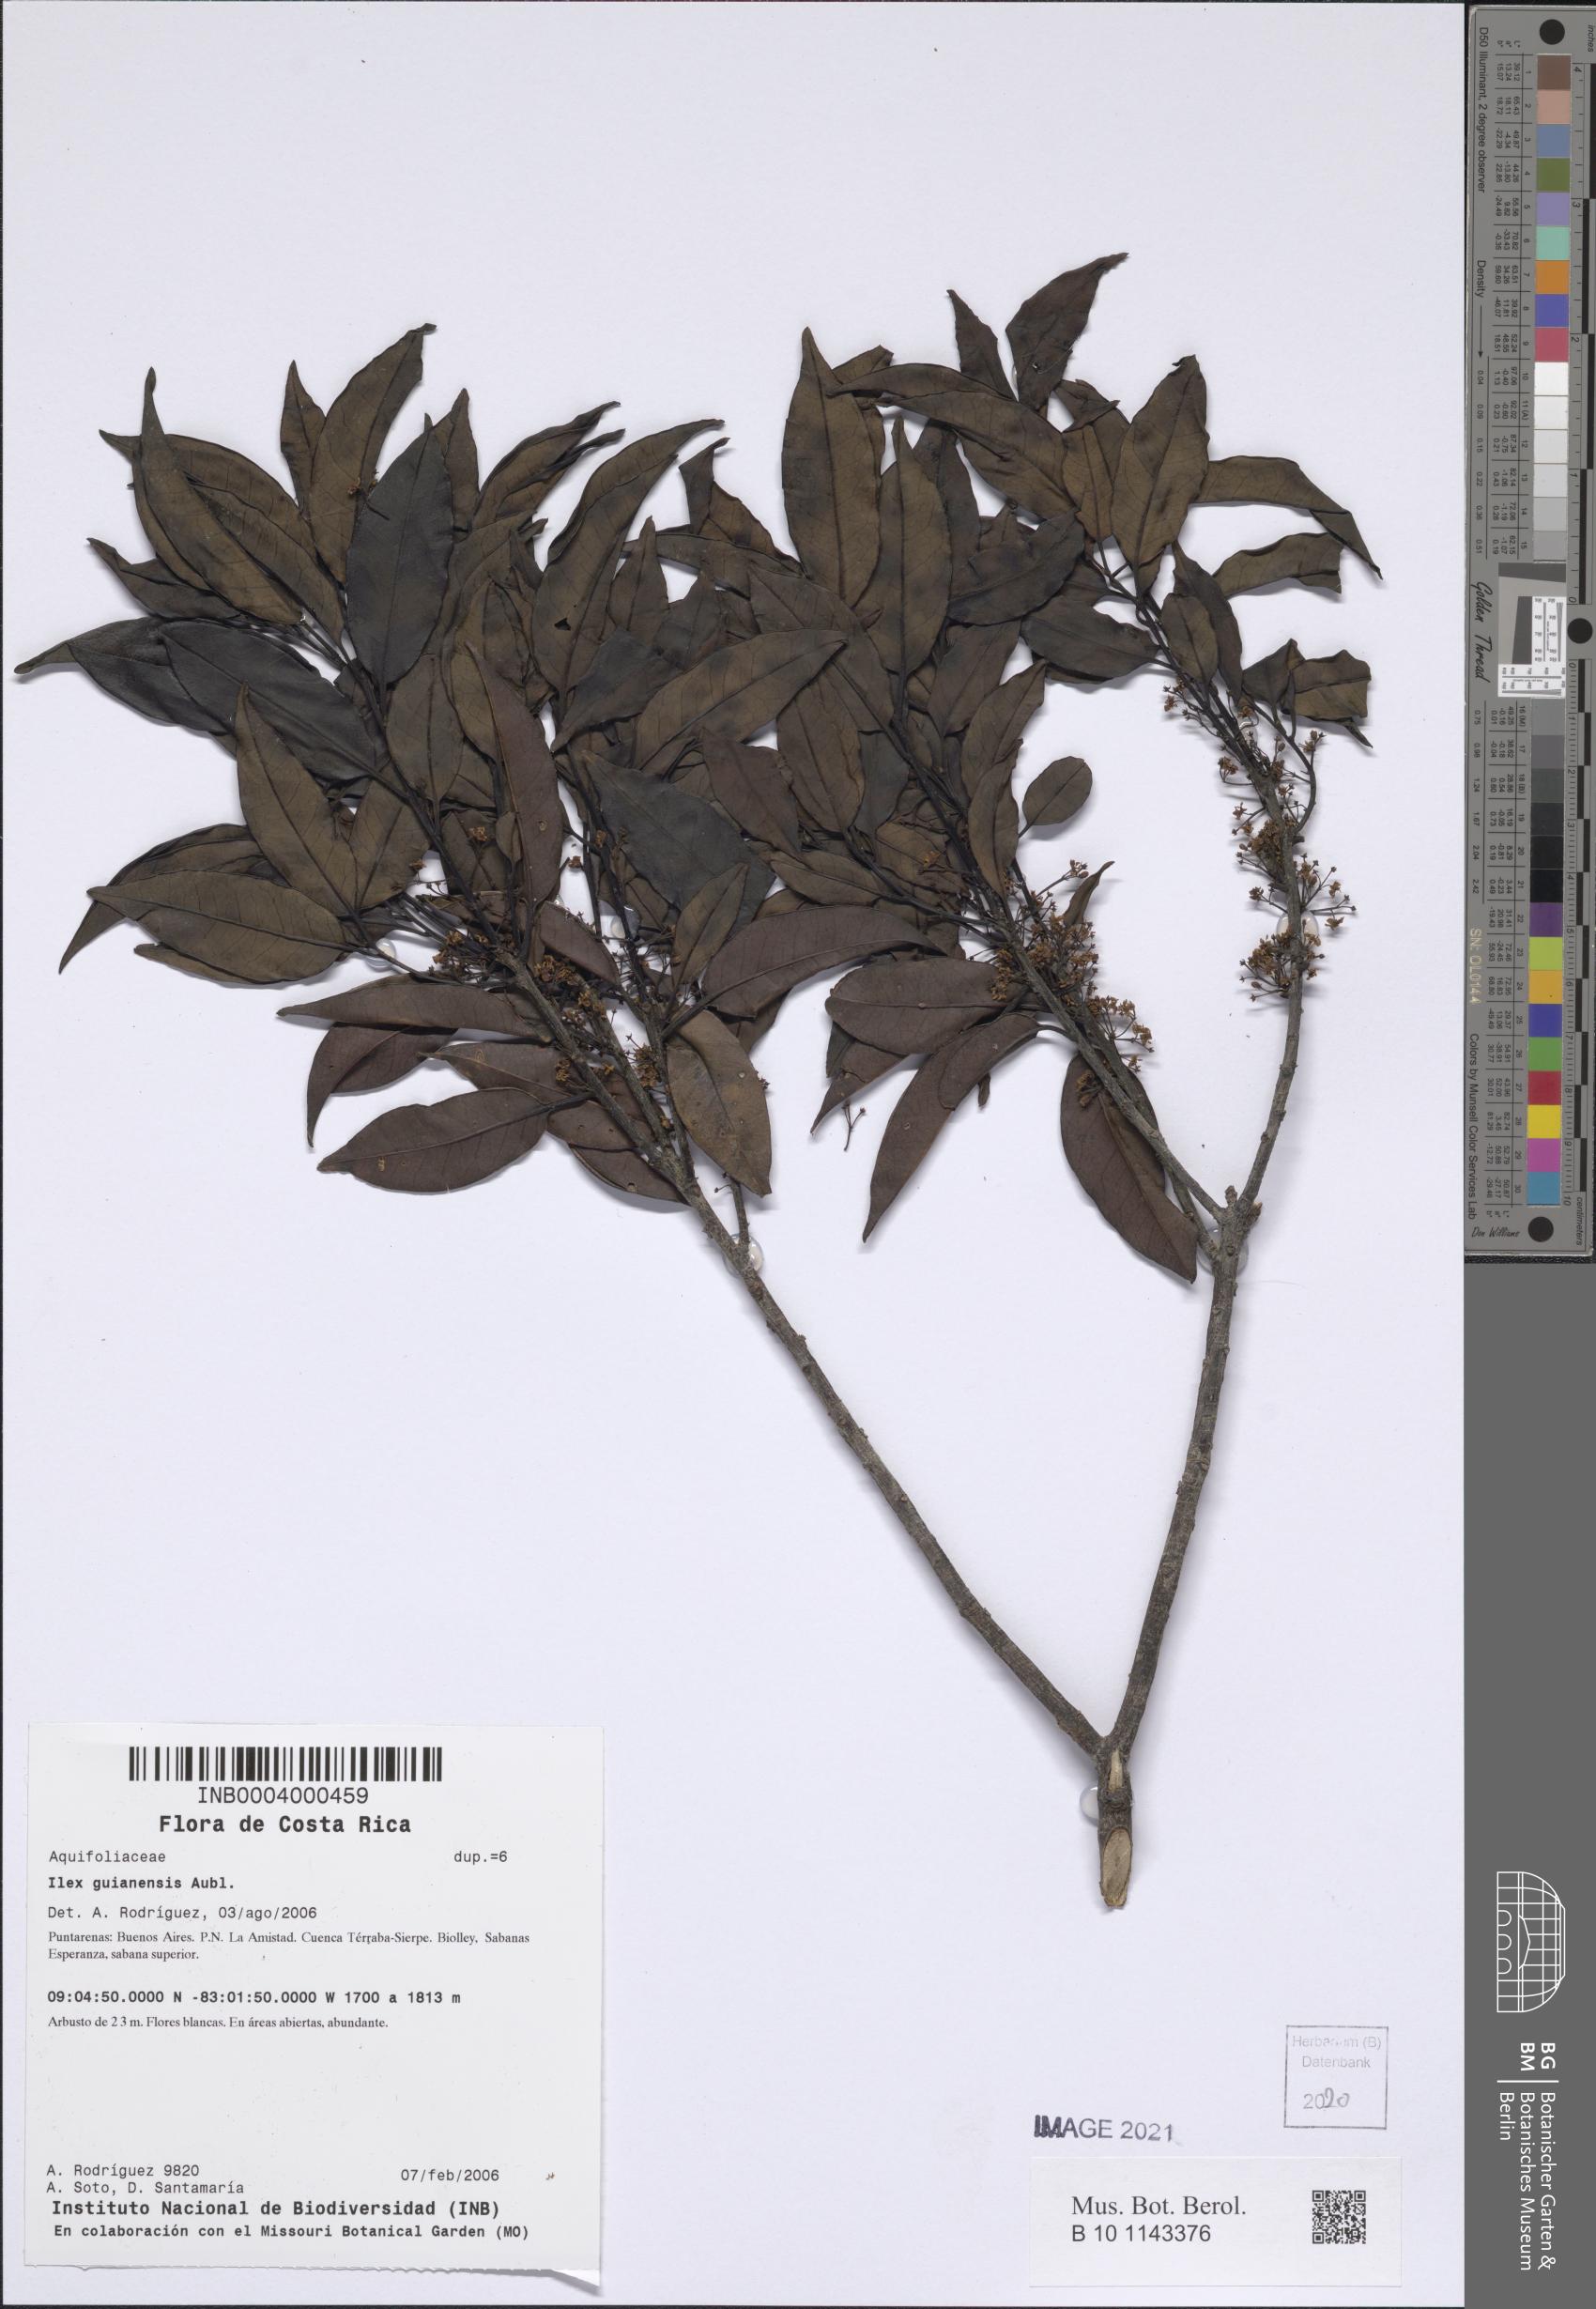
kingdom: Plantae
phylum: Tracheophyta
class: Magnoliopsida
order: Aquifoliales
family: Aquifoliaceae
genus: Ilex
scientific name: Ilex guianensis
